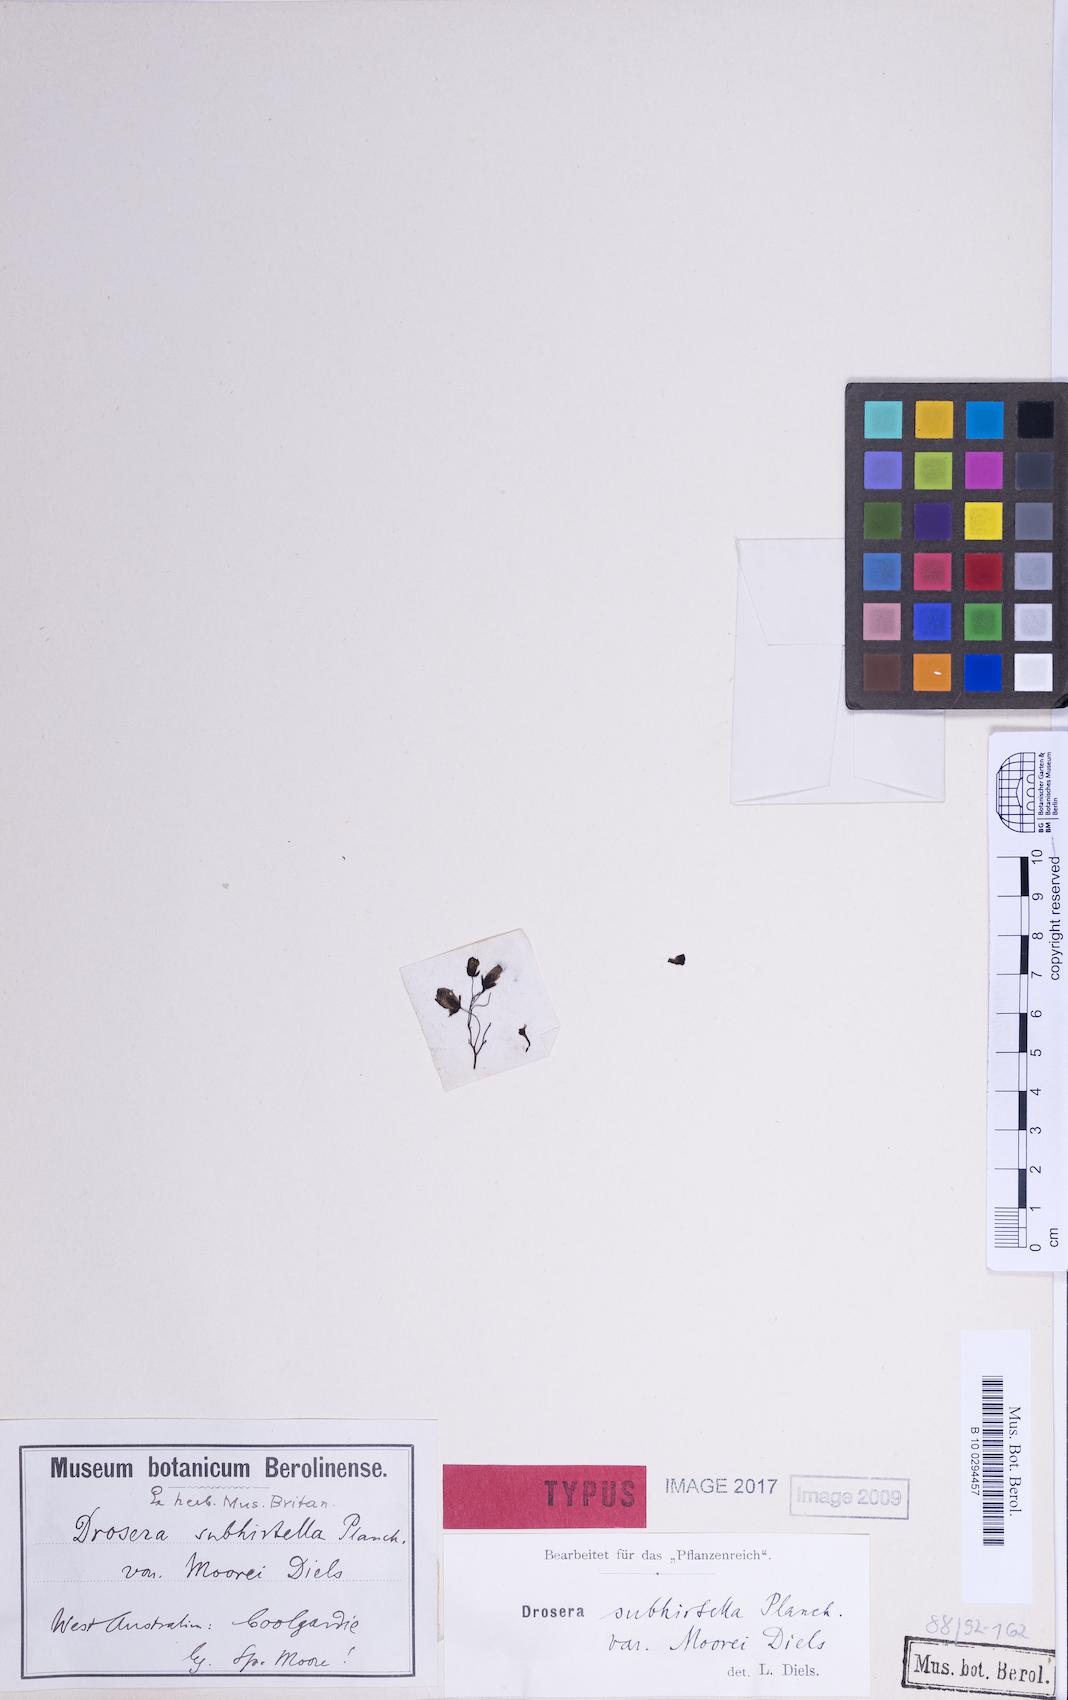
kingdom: Plantae
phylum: Tracheophyta
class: Magnoliopsida
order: Caryophyllales
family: Droseraceae
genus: Drosera
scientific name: Drosera moorei
